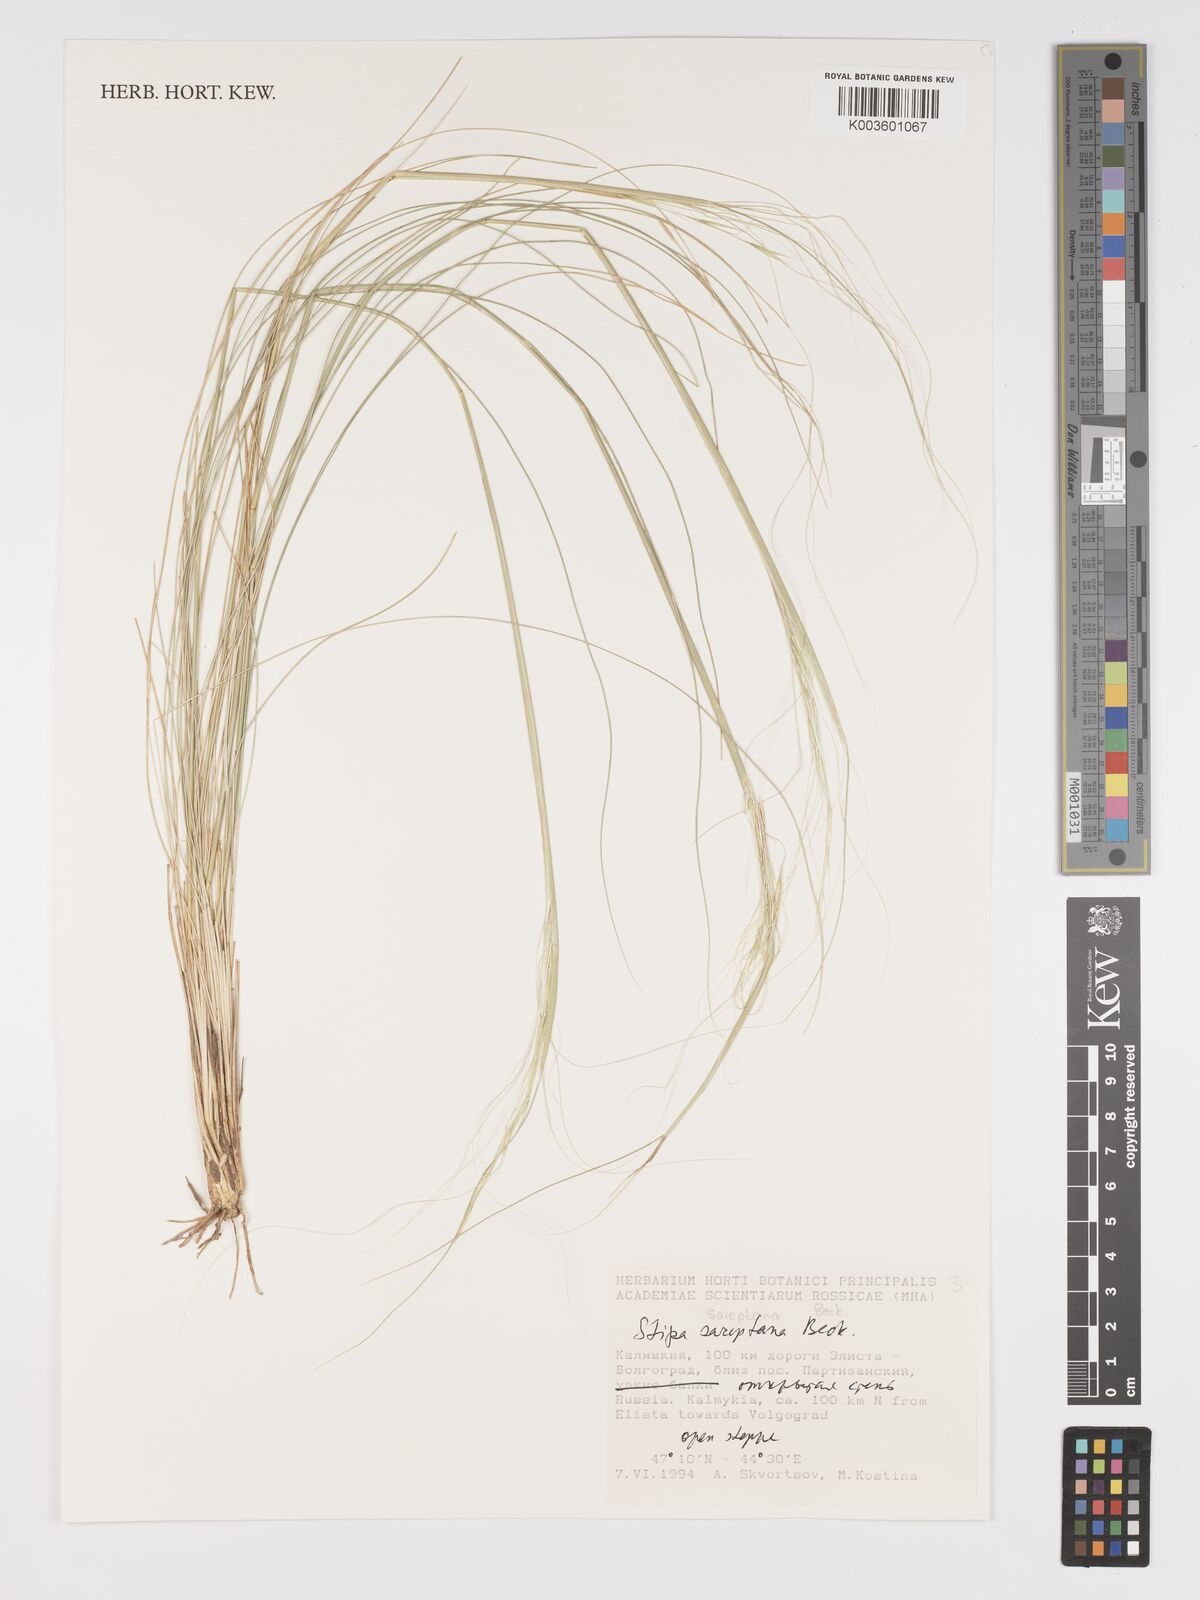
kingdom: Plantae
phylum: Tracheophyta
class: Liliopsida
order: Poales
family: Poaceae
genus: Stipa
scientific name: Stipa sareptana
